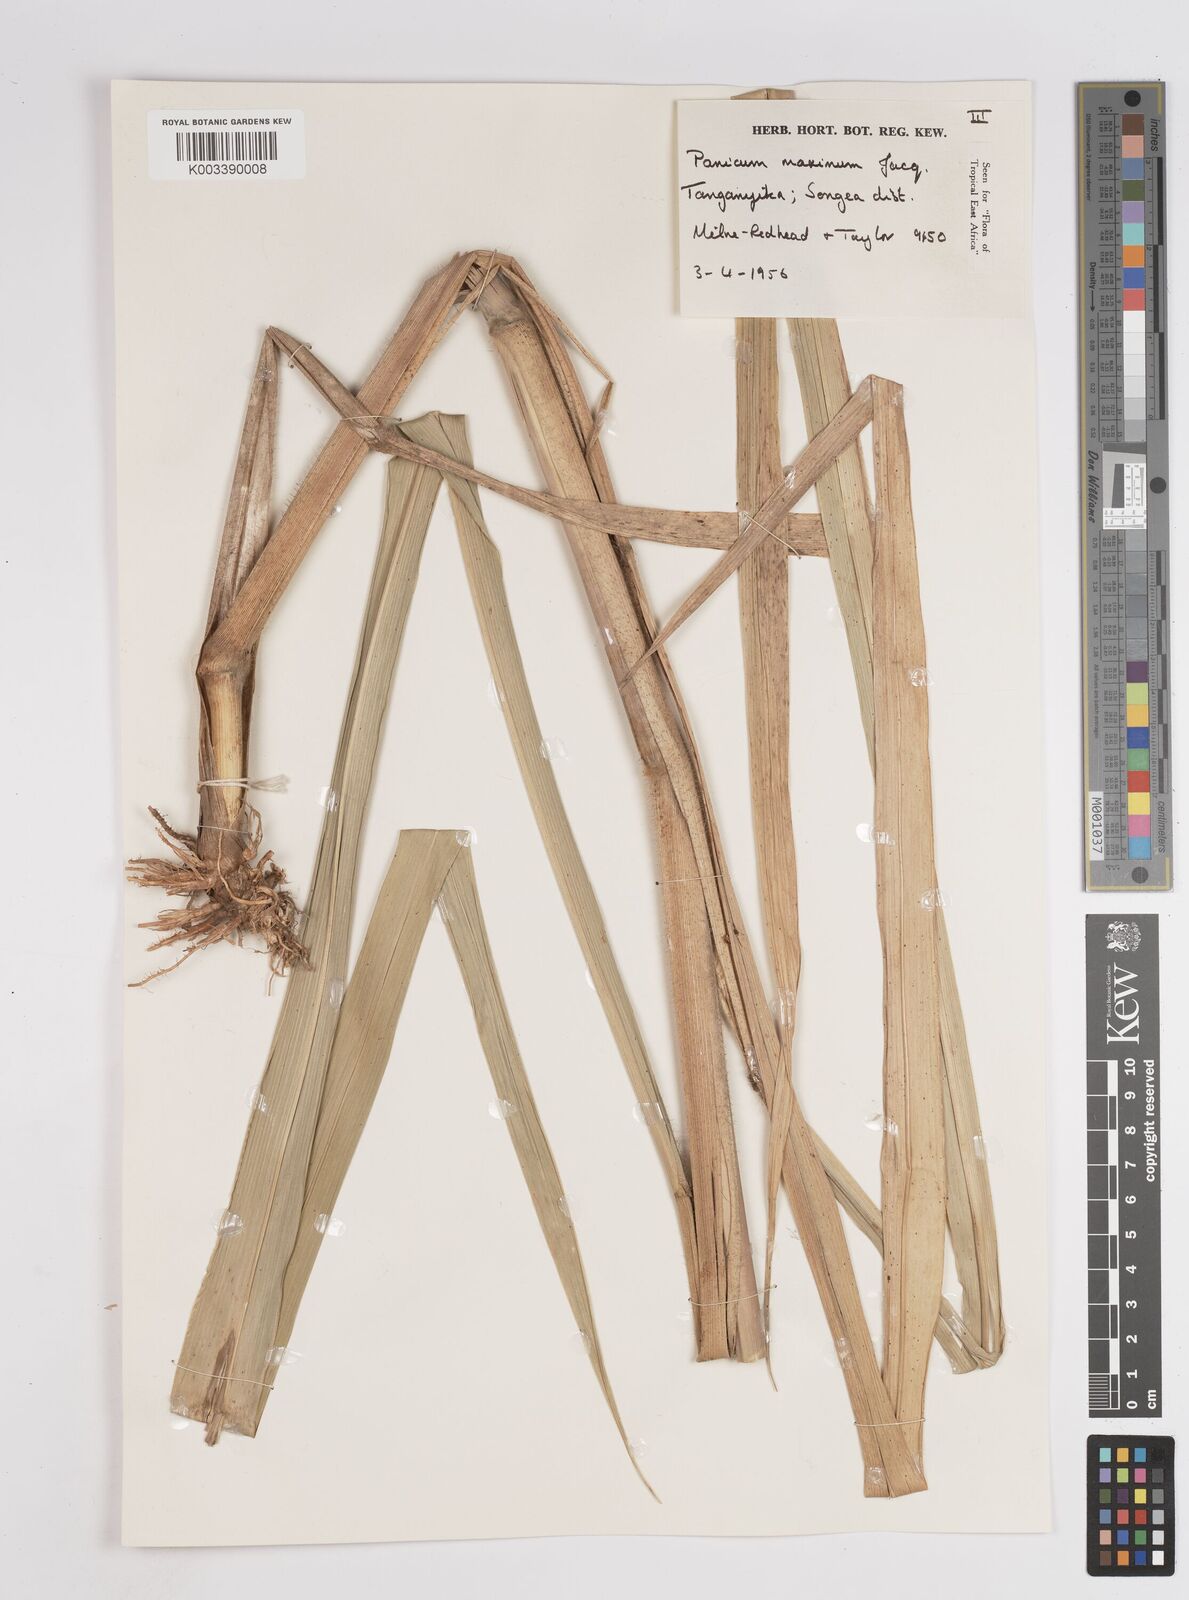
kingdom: Plantae
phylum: Tracheophyta
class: Liliopsida
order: Poales
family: Poaceae
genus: Megathyrsus
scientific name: Megathyrsus maximus
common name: Guineagrass
